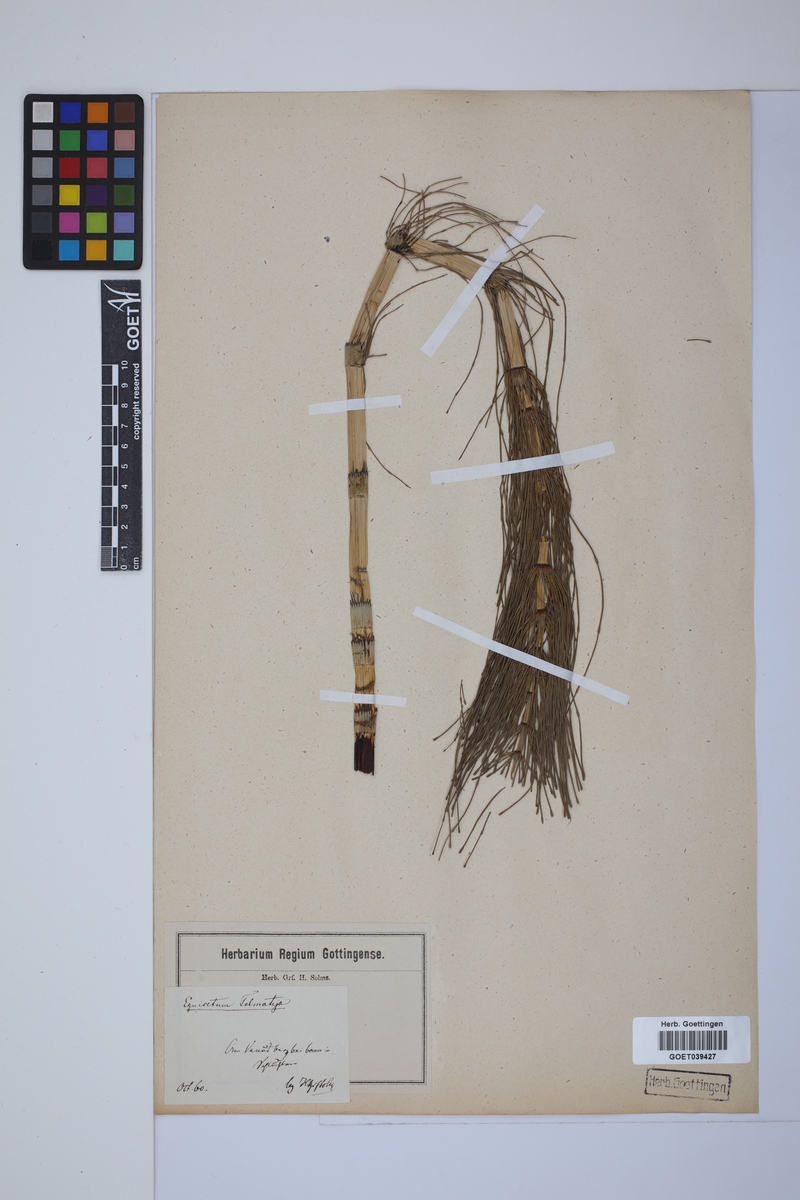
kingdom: Plantae
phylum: Tracheophyta
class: Polypodiopsida
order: Equisetales
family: Equisetaceae
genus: Equisetum
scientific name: Equisetum telmateia
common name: Great horsetail
